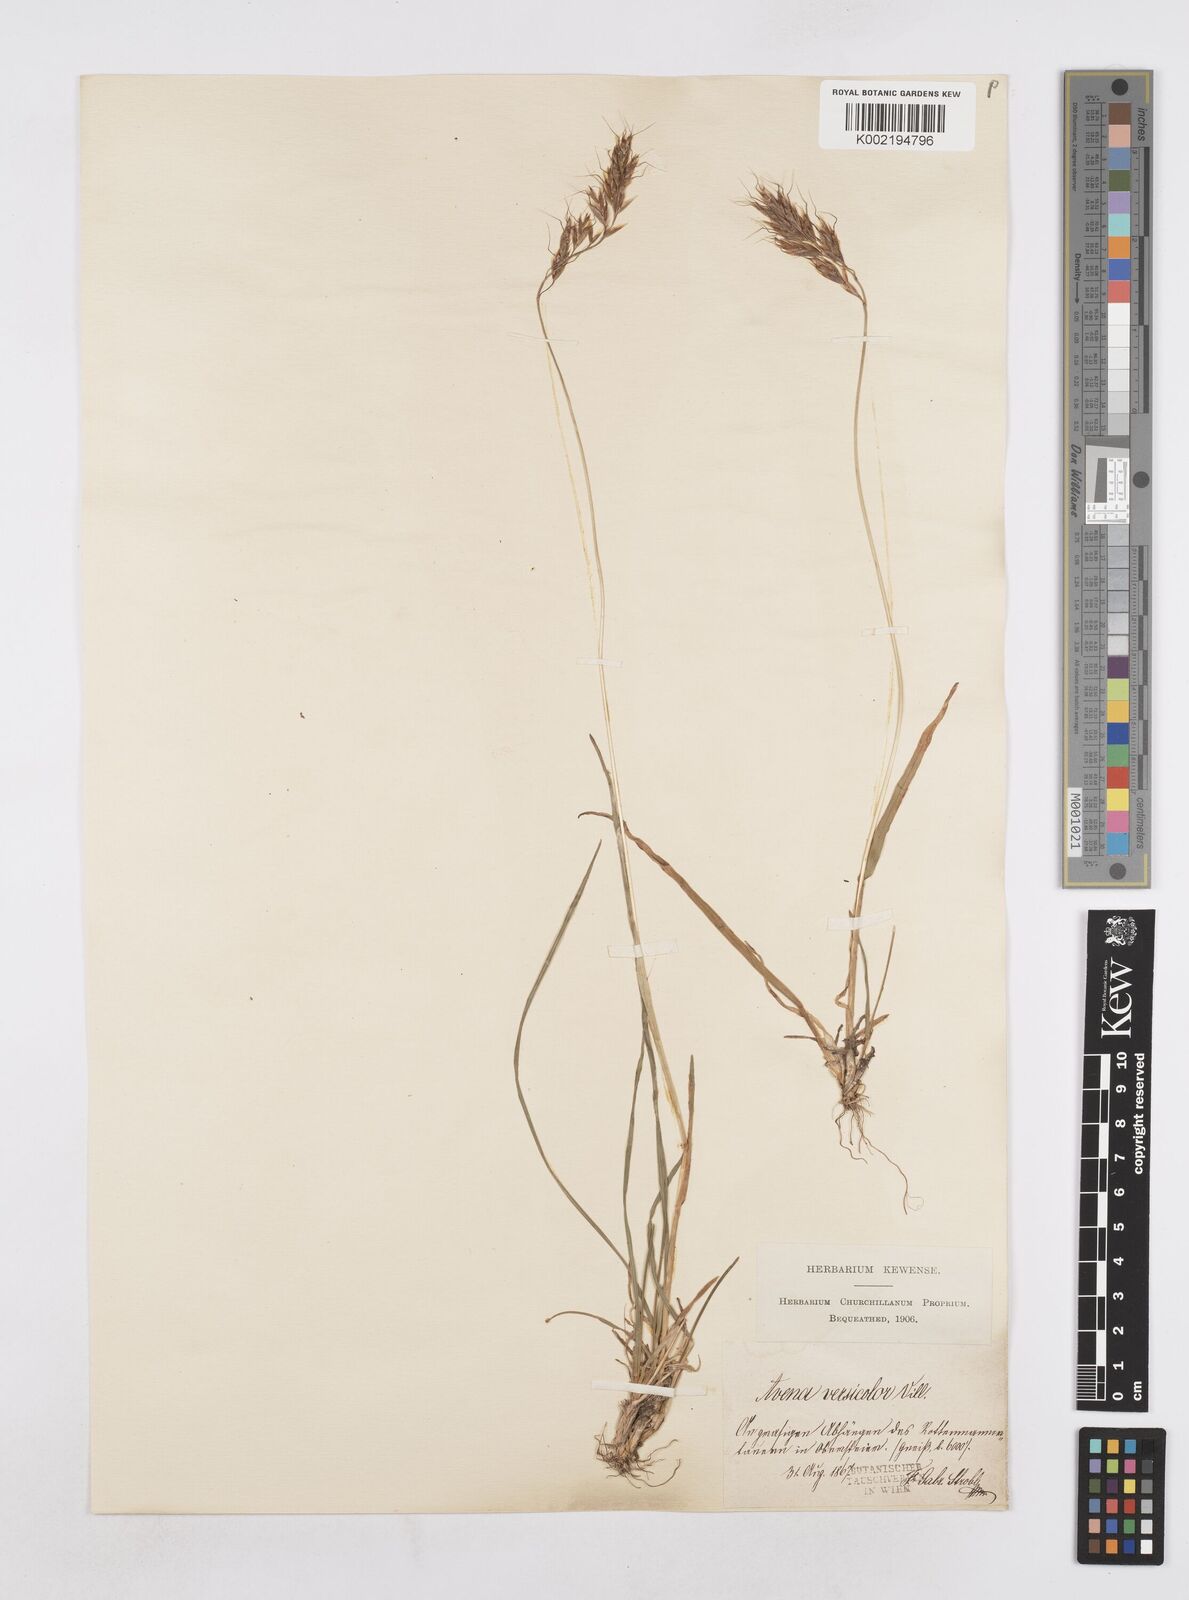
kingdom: Plantae
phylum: Tracheophyta
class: Liliopsida
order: Poales
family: Poaceae
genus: Helictochloa
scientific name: Helictochloa versicolor
